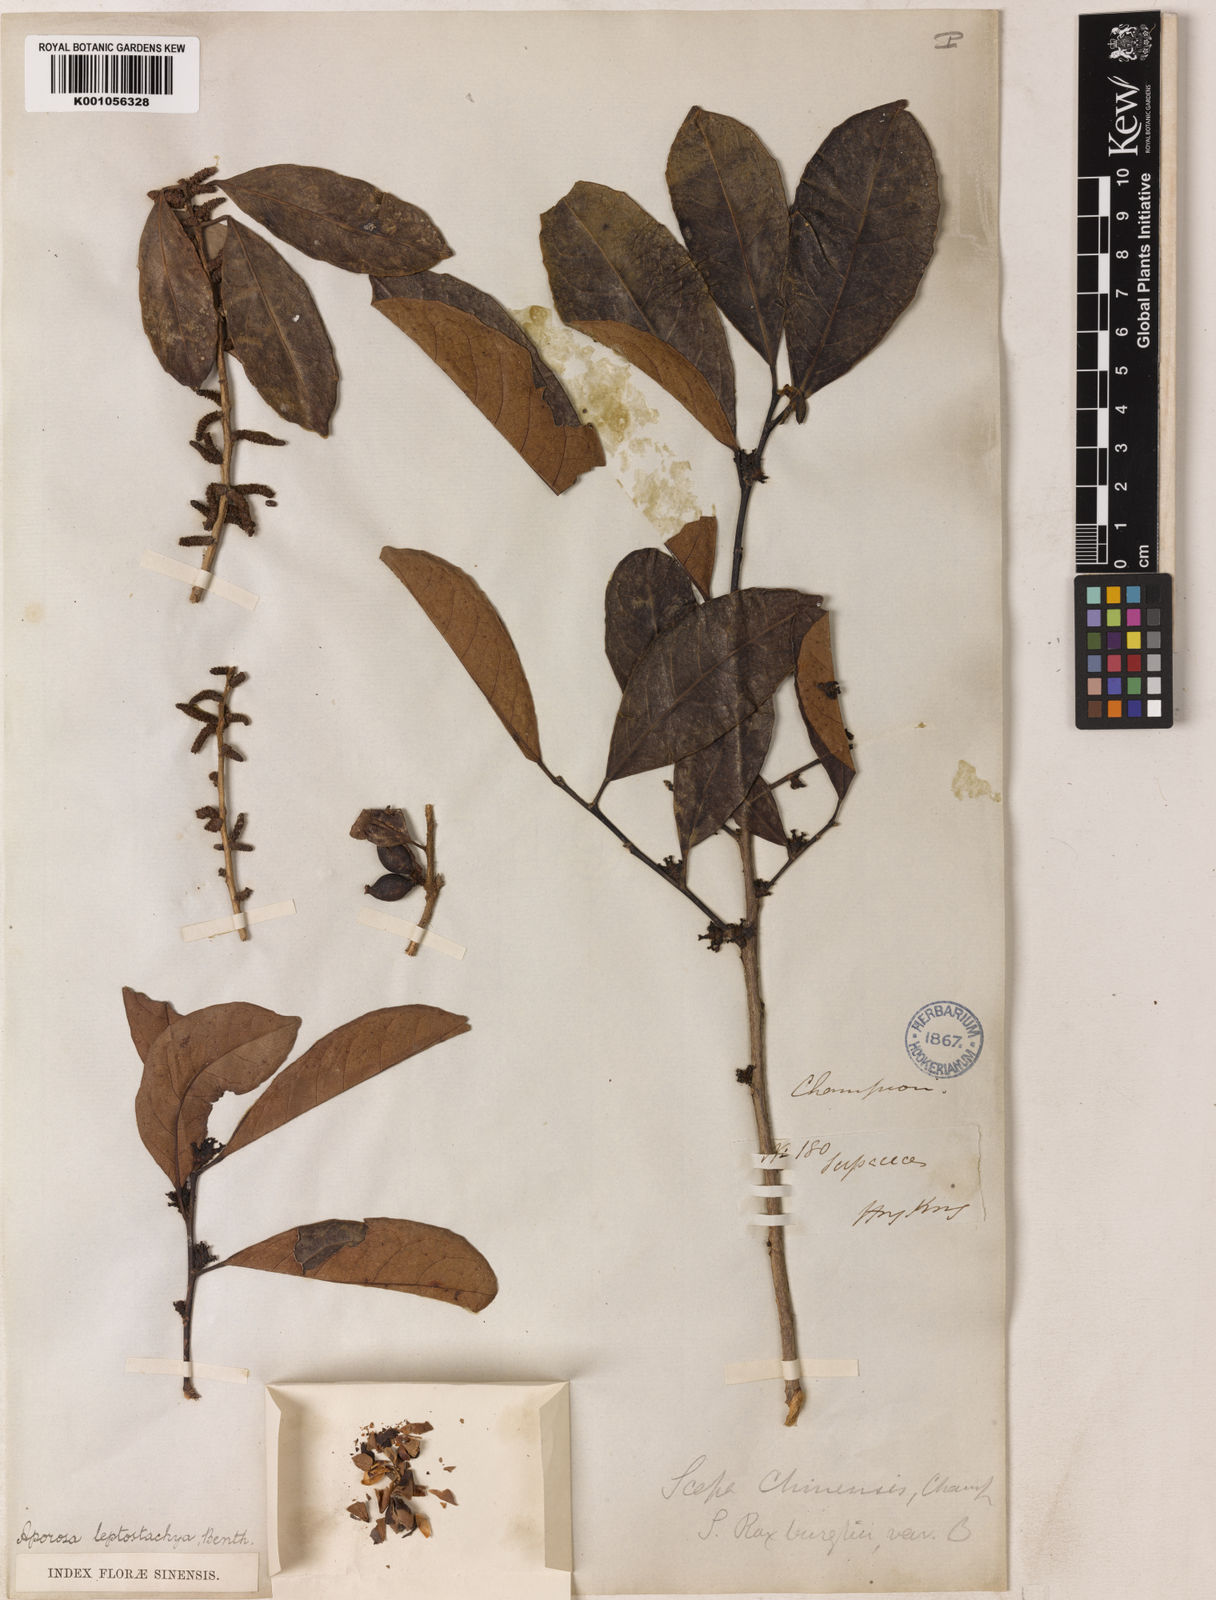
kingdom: Plantae
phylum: Tracheophyta
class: Magnoliopsida
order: Malpighiales
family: Phyllanthaceae
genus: Aporosa
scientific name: Aporosa octandra
